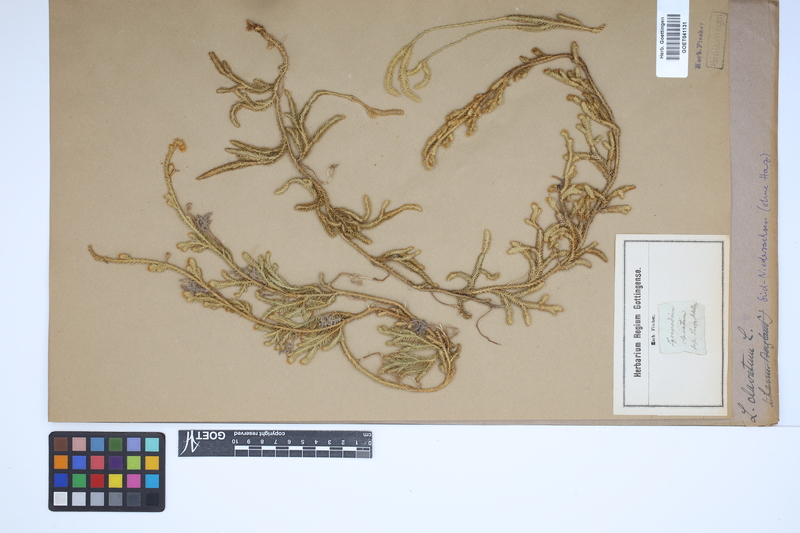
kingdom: Plantae
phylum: Tracheophyta
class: Lycopodiopsida
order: Lycopodiales
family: Lycopodiaceae
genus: Lycopodium
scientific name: Lycopodium clavatum
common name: Stag's-horn clubmoss
